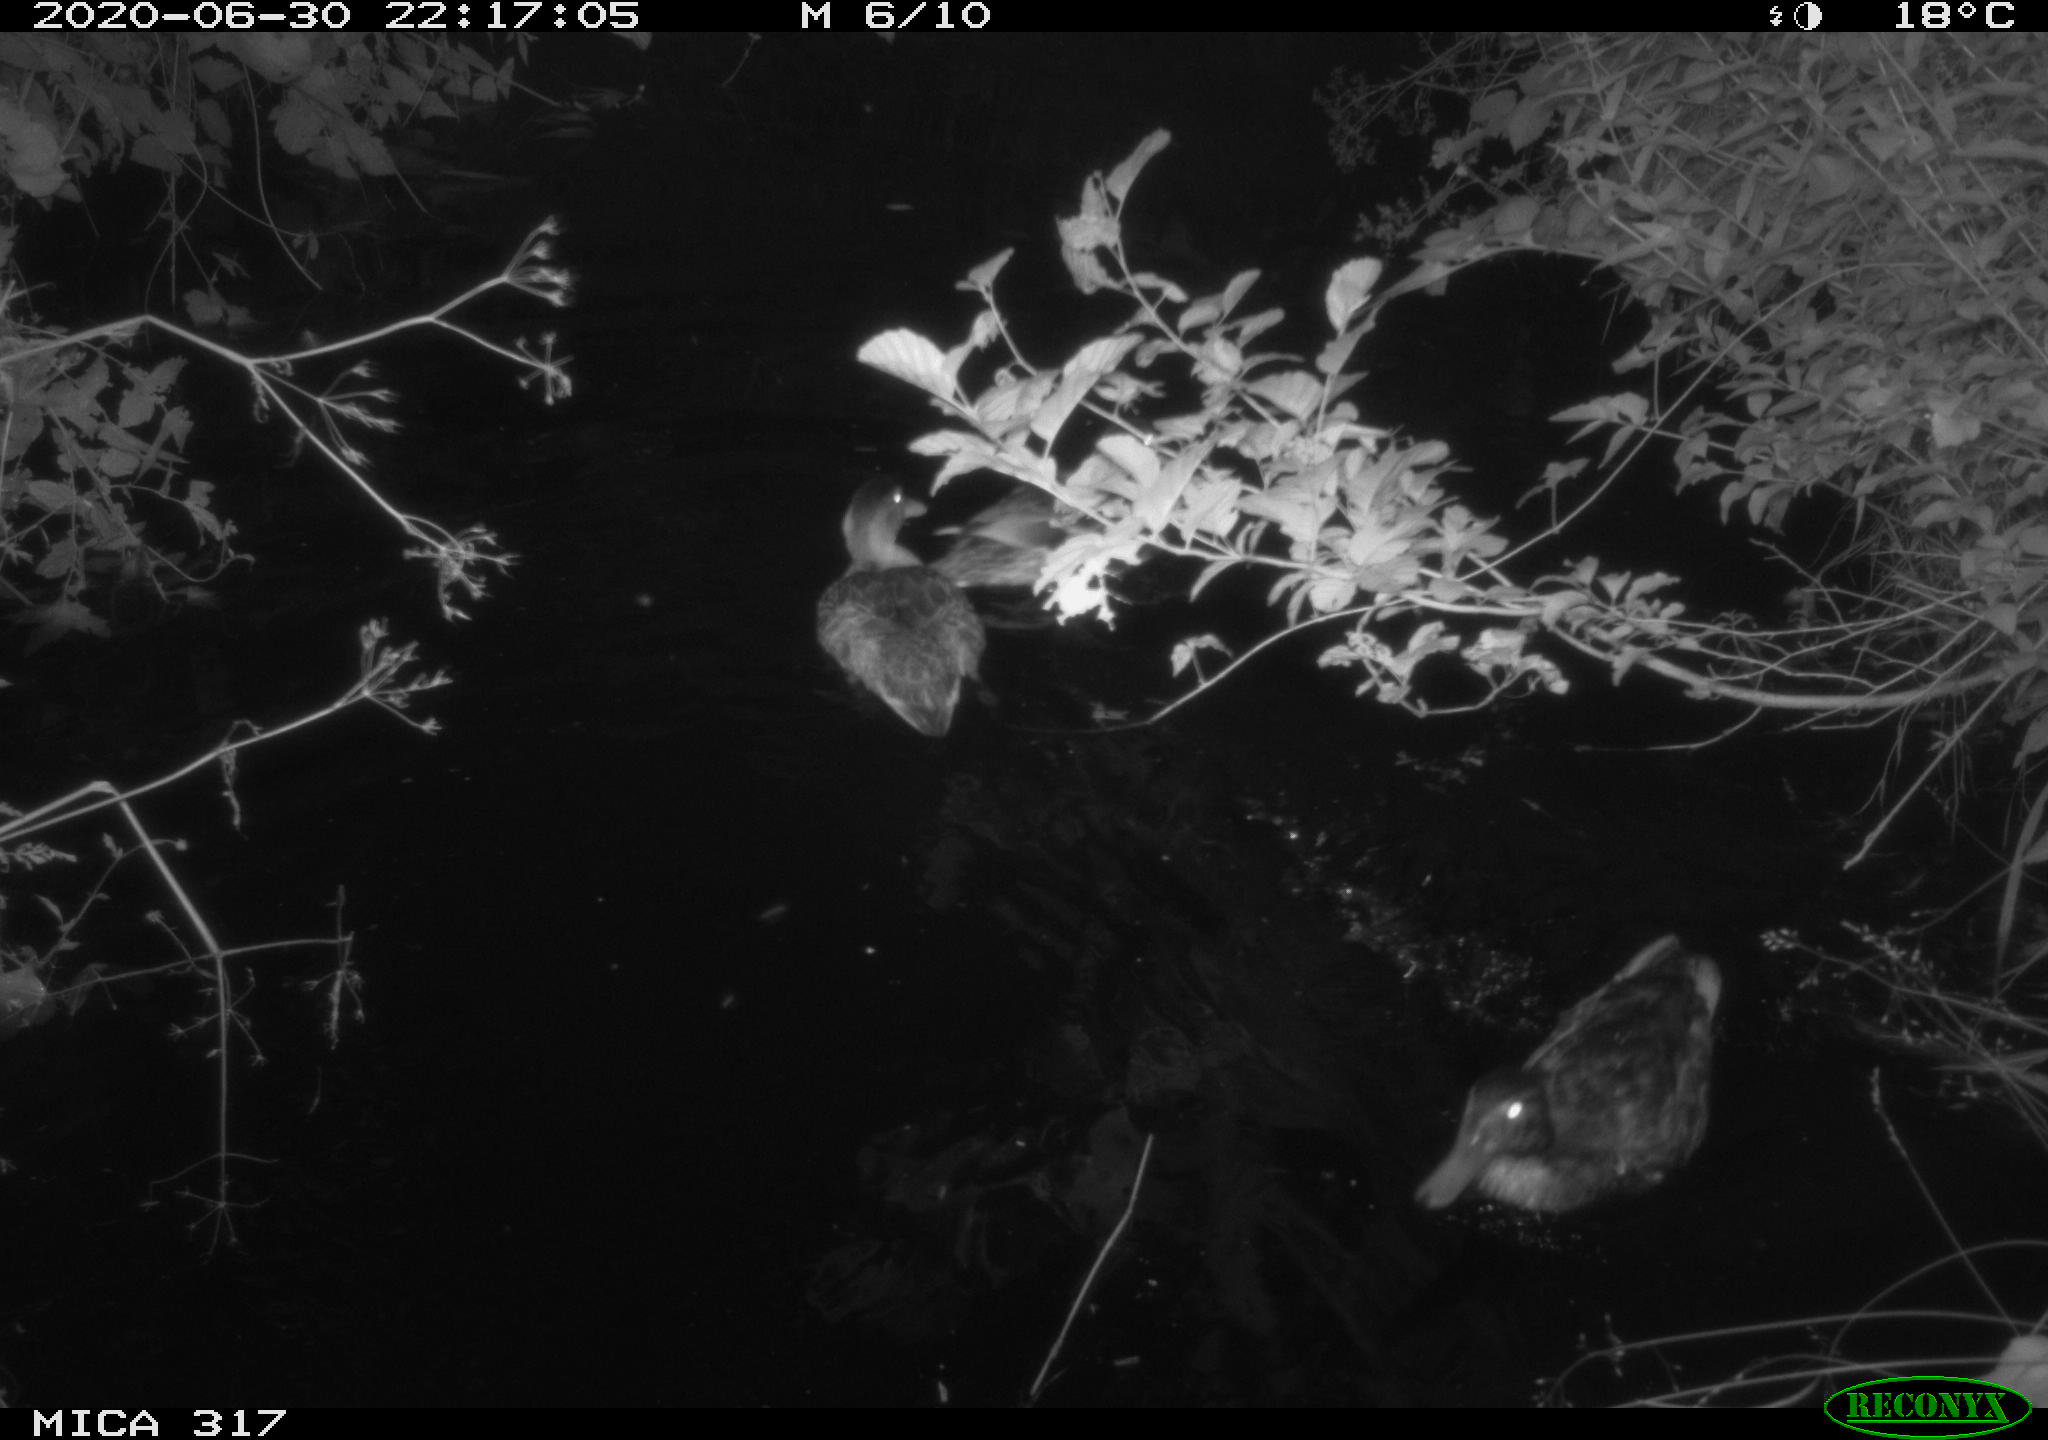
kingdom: Animalia
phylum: Chordata
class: Aves
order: Anseriformes
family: Anatidae
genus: Anas
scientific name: Anas platyrhynchos
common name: Mallard
